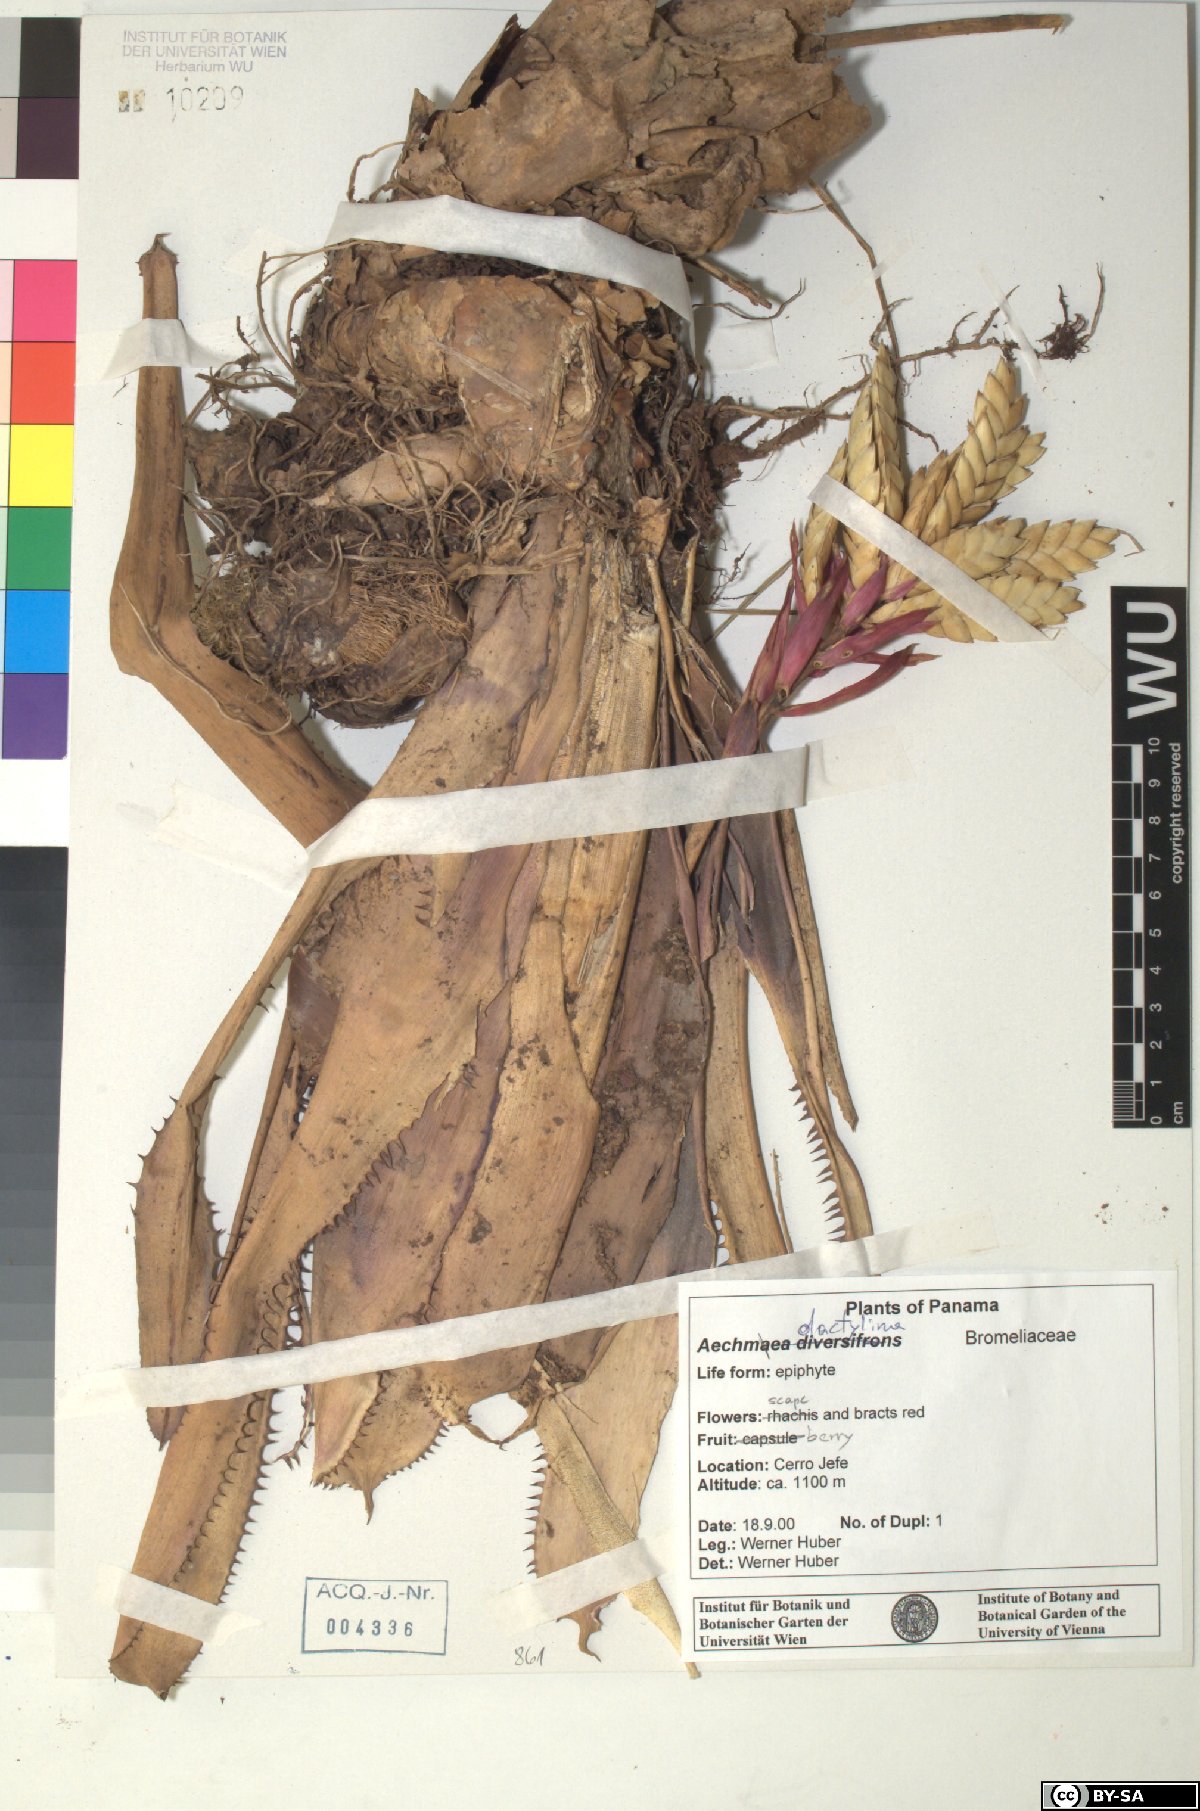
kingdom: Plantae
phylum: Tracheophyta
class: Liliopsida
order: Poales
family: Bromeliaceae
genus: Aechmea
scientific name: Aechmea dactylina
